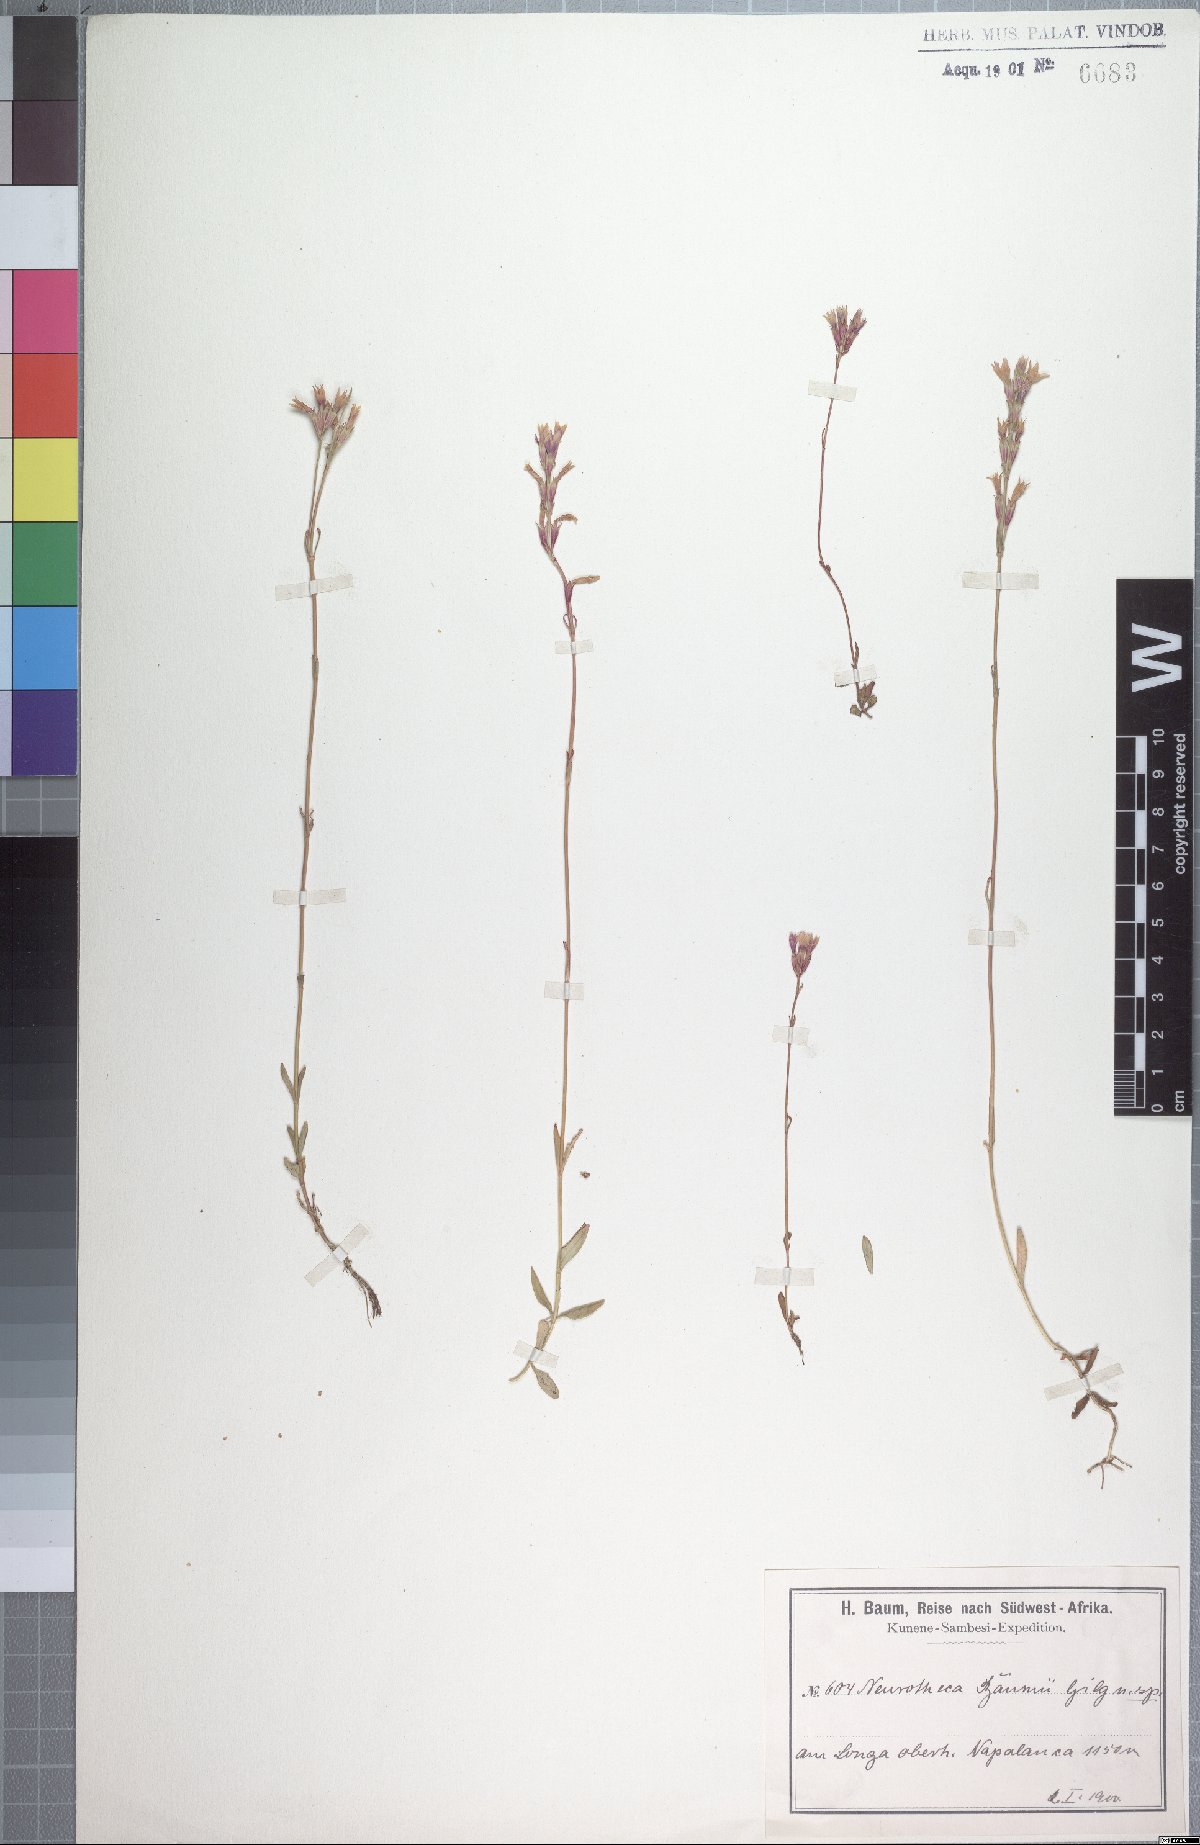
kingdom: Plantae
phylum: Tracheophyta
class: Magnoliopsida
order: Gentianales
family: Gentianaceae
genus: Neurotheca
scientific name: Neurotheca congolana
